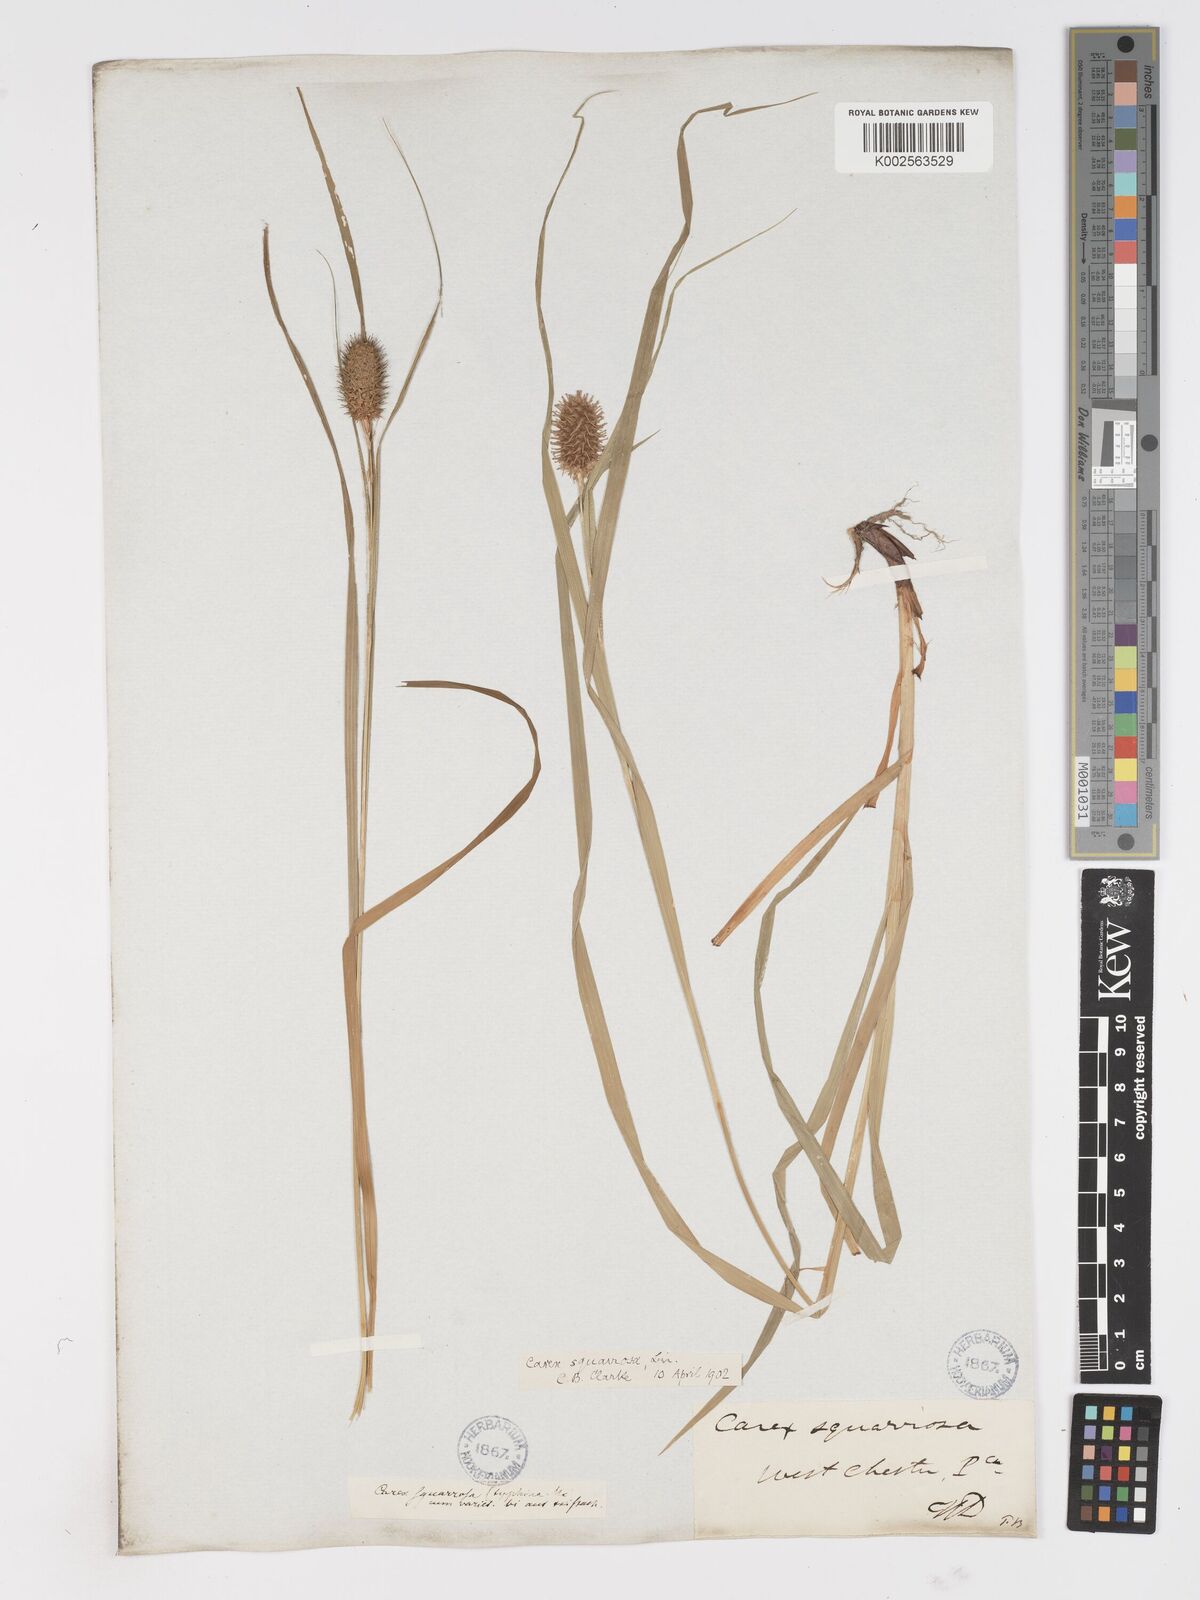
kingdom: Plantae
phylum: Tracheophyta
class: Liliopsida
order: Poales
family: Cyperaceae
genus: Carex
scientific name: Carex squarrosa
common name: Narrow-leaved cattail sedge
